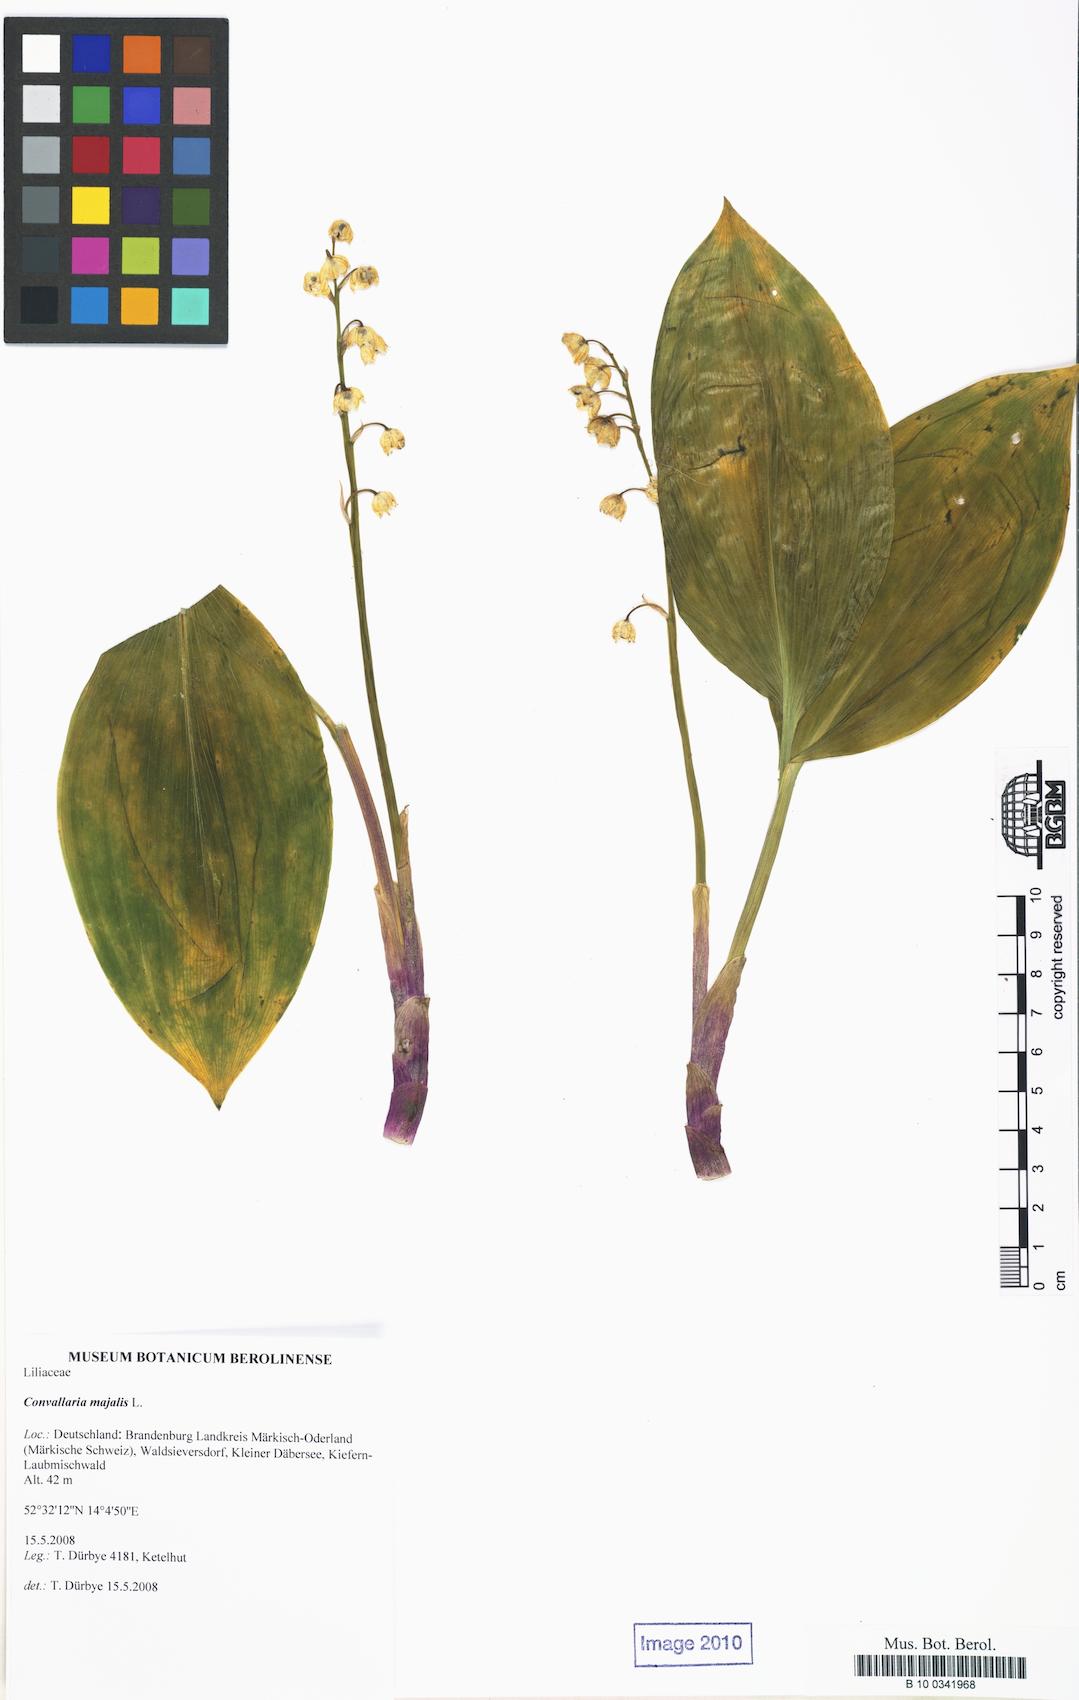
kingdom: Plantae
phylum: Tracheophyta
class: Liliopsida
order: Asparagales
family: Asparagaceae
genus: Convallaria
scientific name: Convallaria majalis
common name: Lily-of-the-valley
